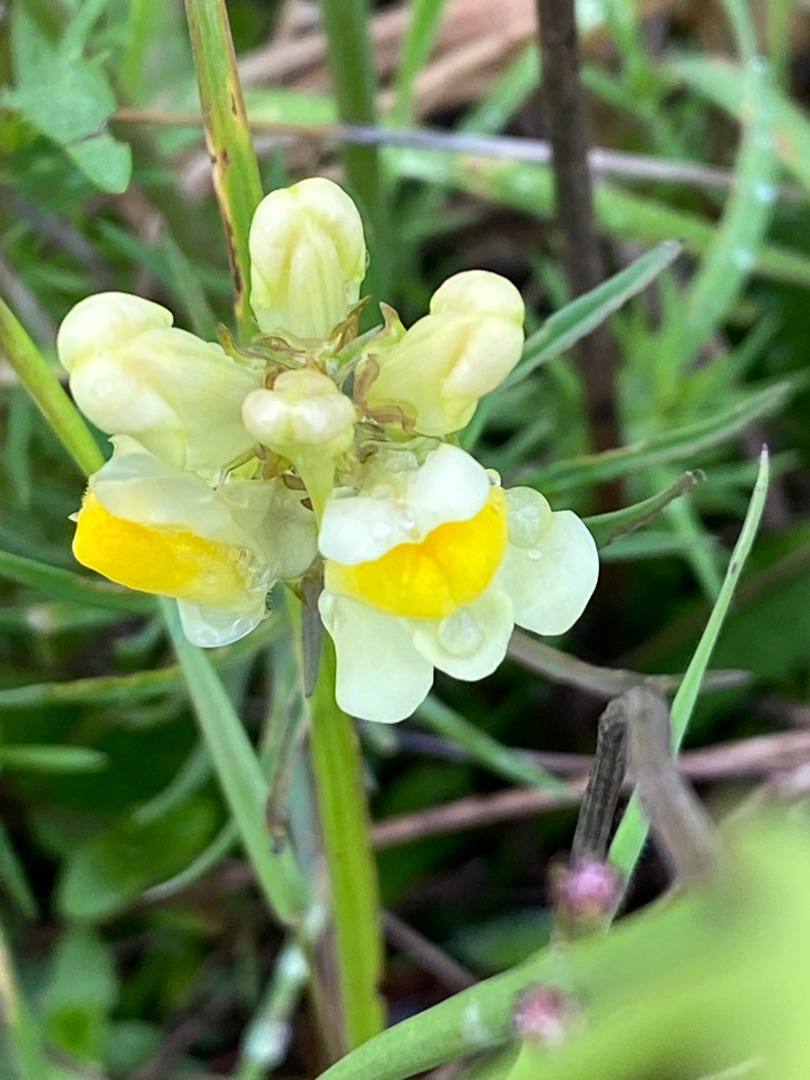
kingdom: Plantae
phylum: Tracheophyta
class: Magnoliopsida
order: Lamiales
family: Plantaginaceae
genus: Linaria
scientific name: Linaria vulgaris
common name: Almindelig torskemund
